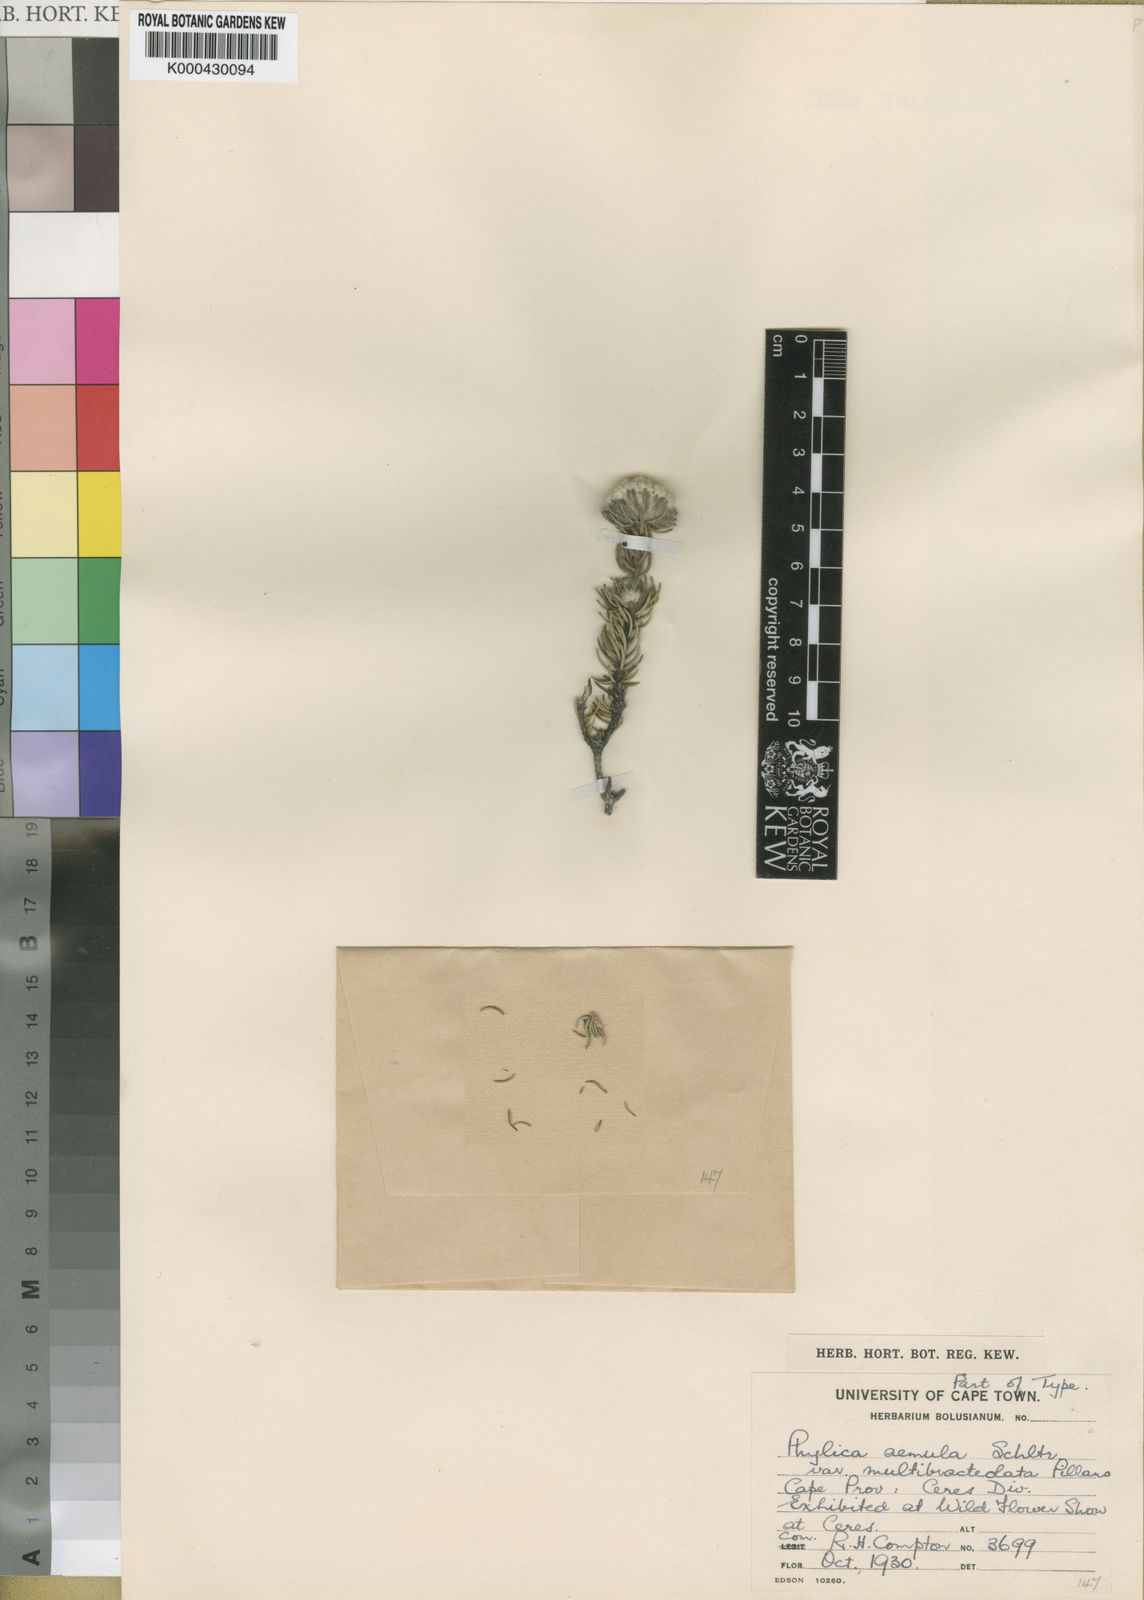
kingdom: Plantae
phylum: Tracheophyta
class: Magnoliopsida
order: Rosales
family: Rhamnaceae
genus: Phylica
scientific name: Phylica aemula
